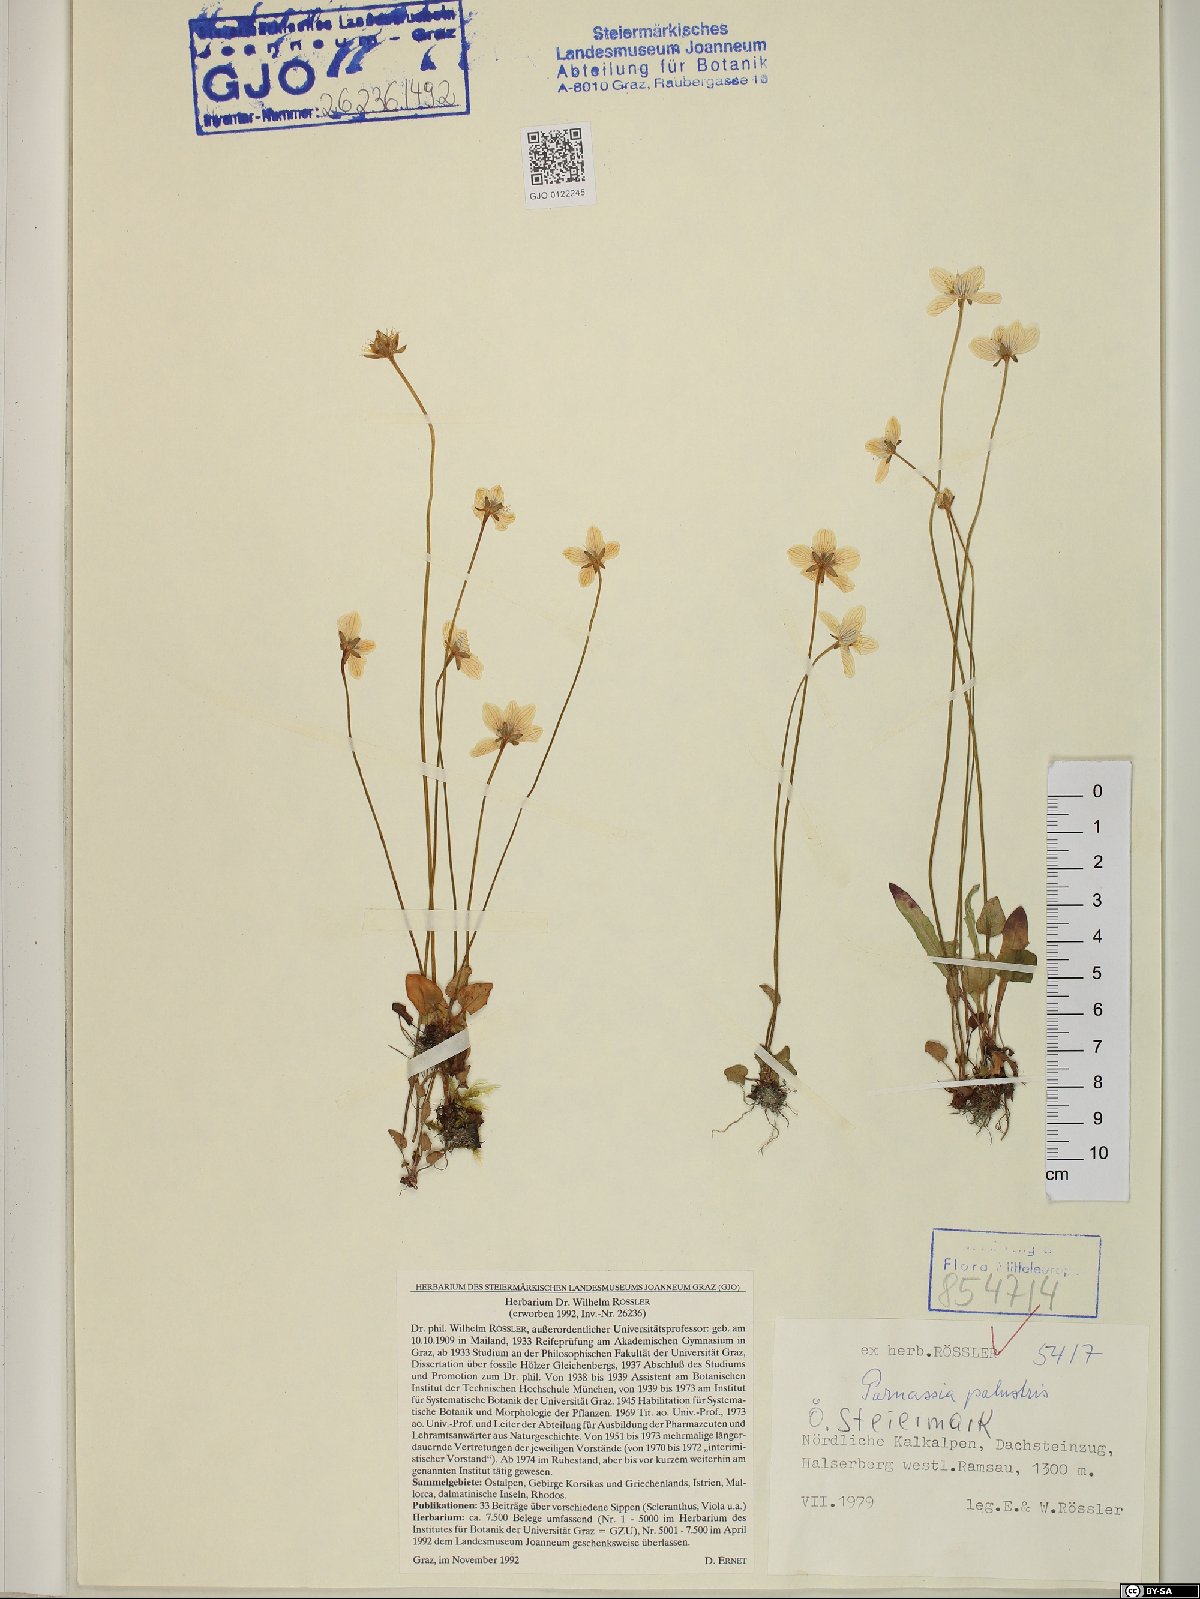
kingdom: Plantae
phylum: Tracheophyta
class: Magnoliopsida
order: Celastrales
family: Parnassiaceae
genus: Parnassia
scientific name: Parnassia palustris
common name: Grass-of-parnassus
